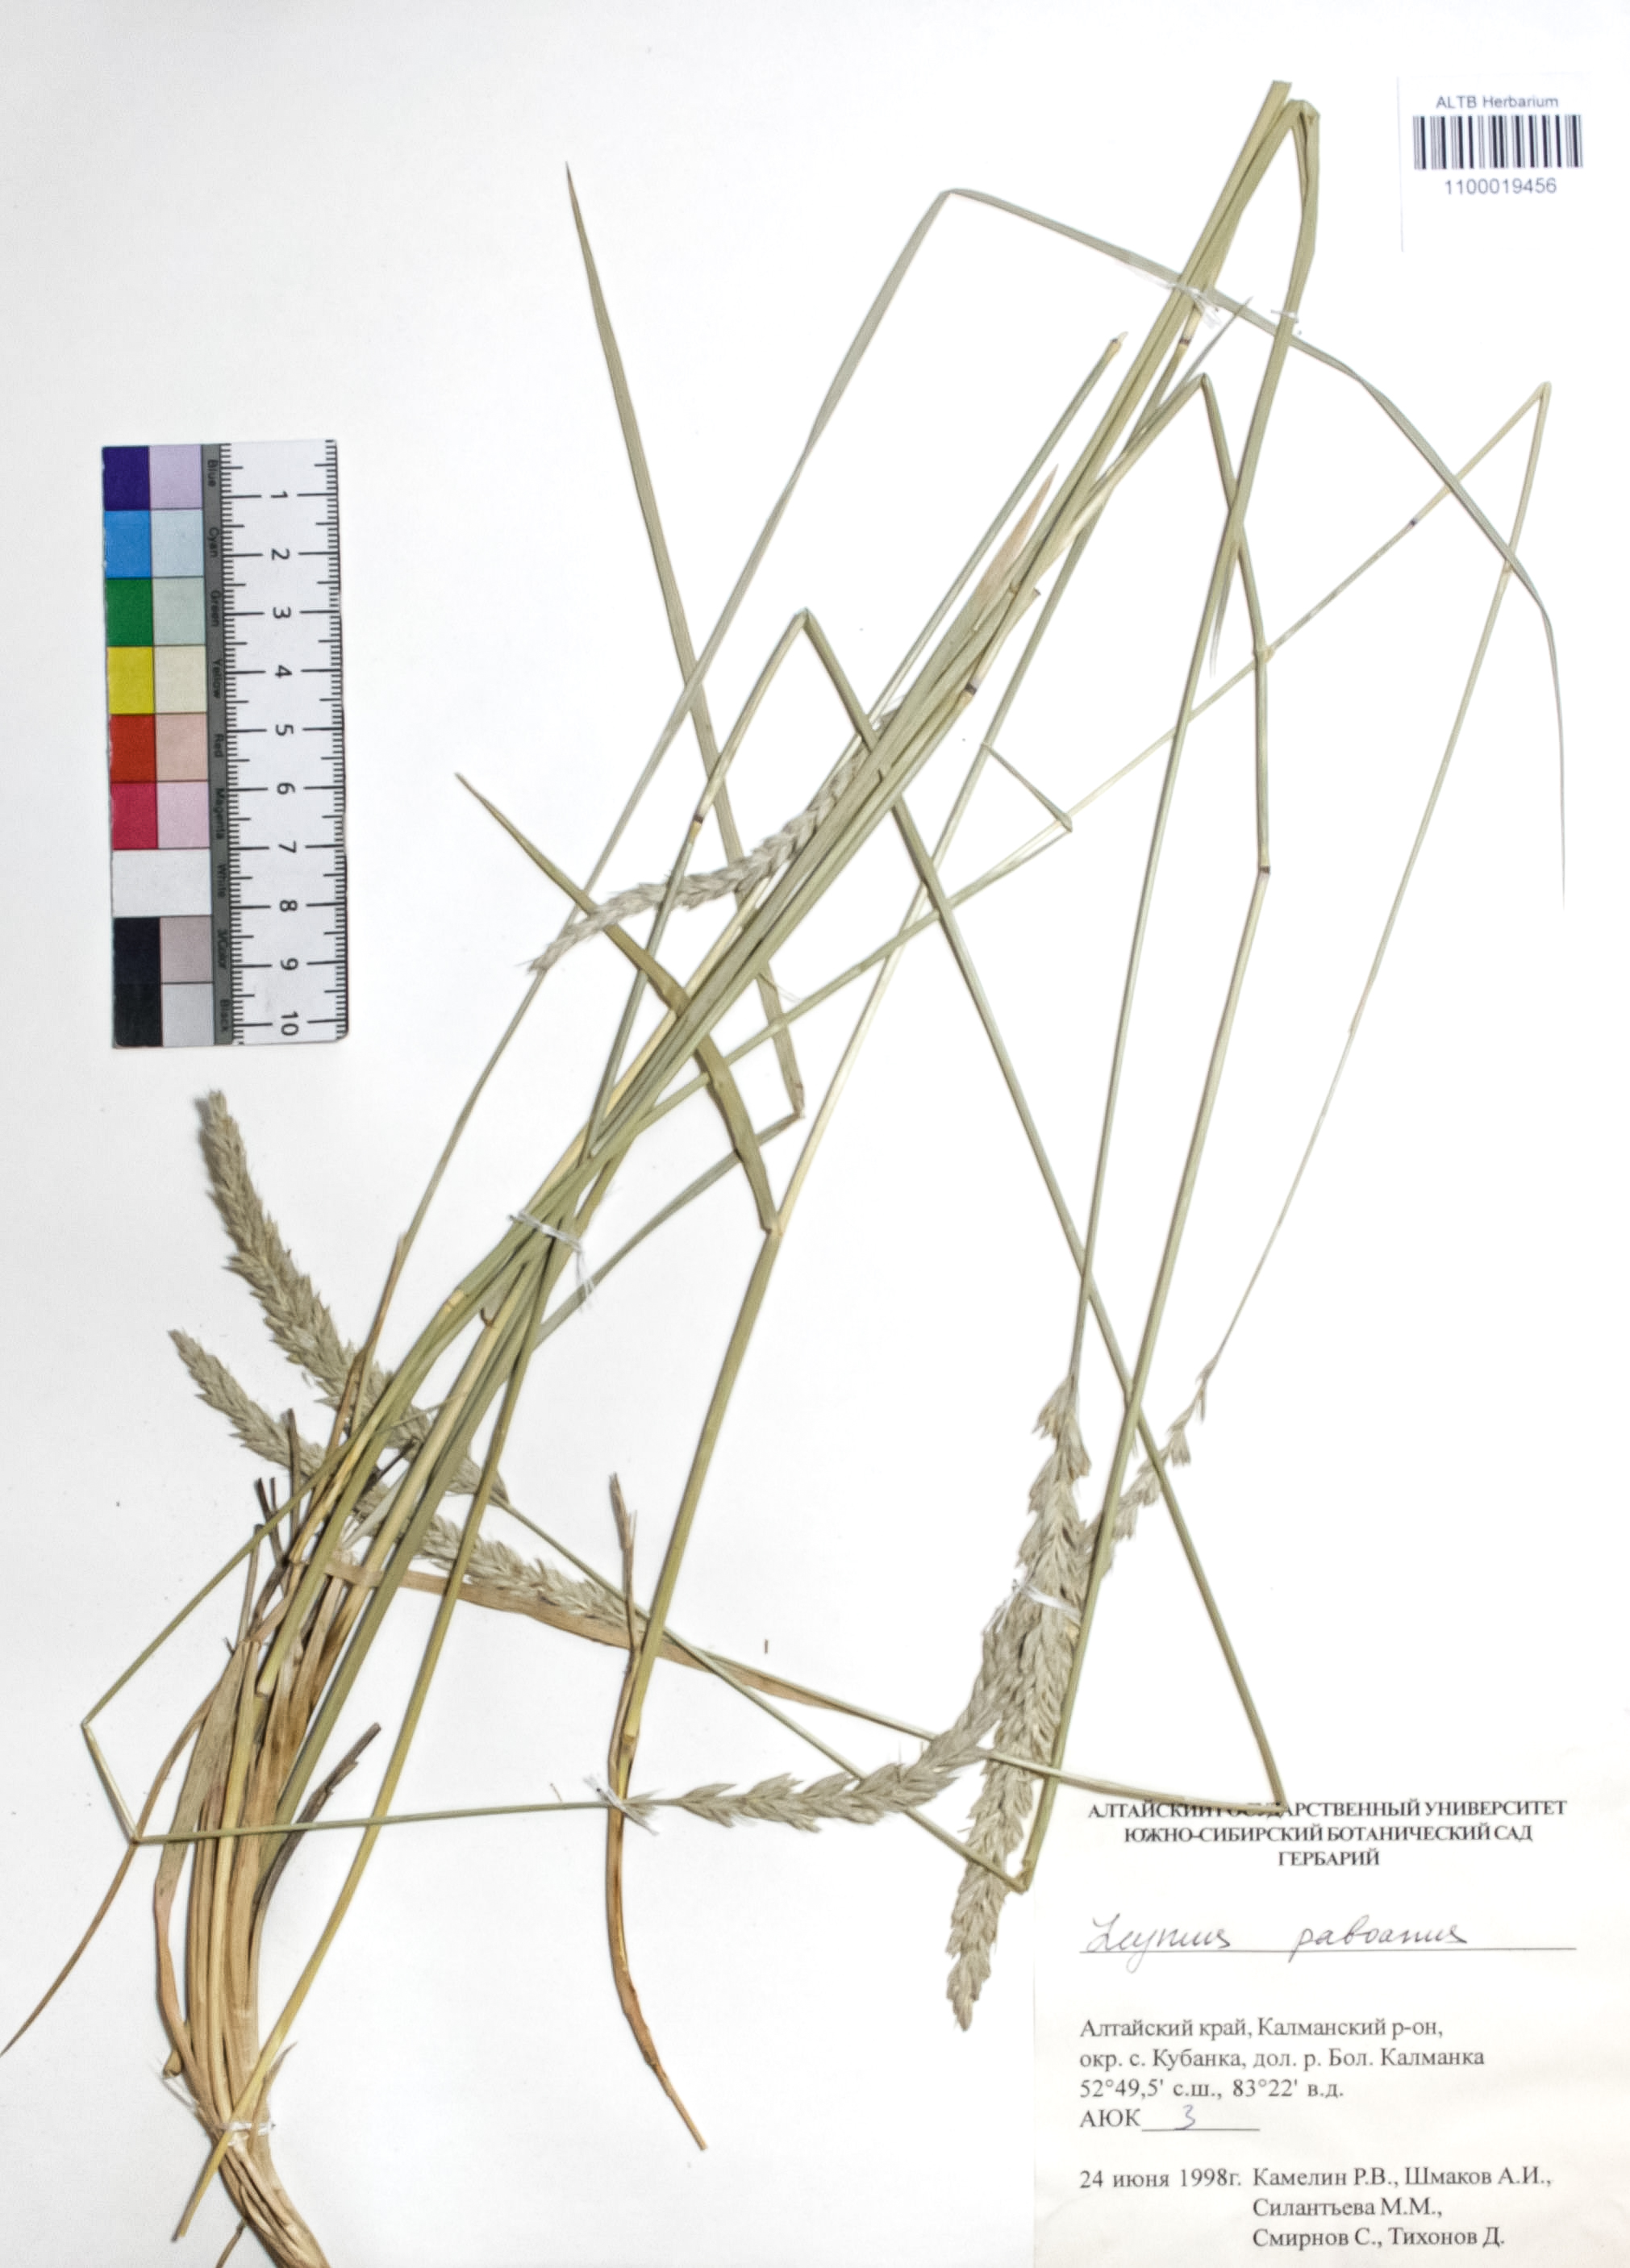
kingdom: Plantae
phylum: Tracheophyta
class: Liliopsida
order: Poales
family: Poaceae
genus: Leymus
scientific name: Leymus paboanus
